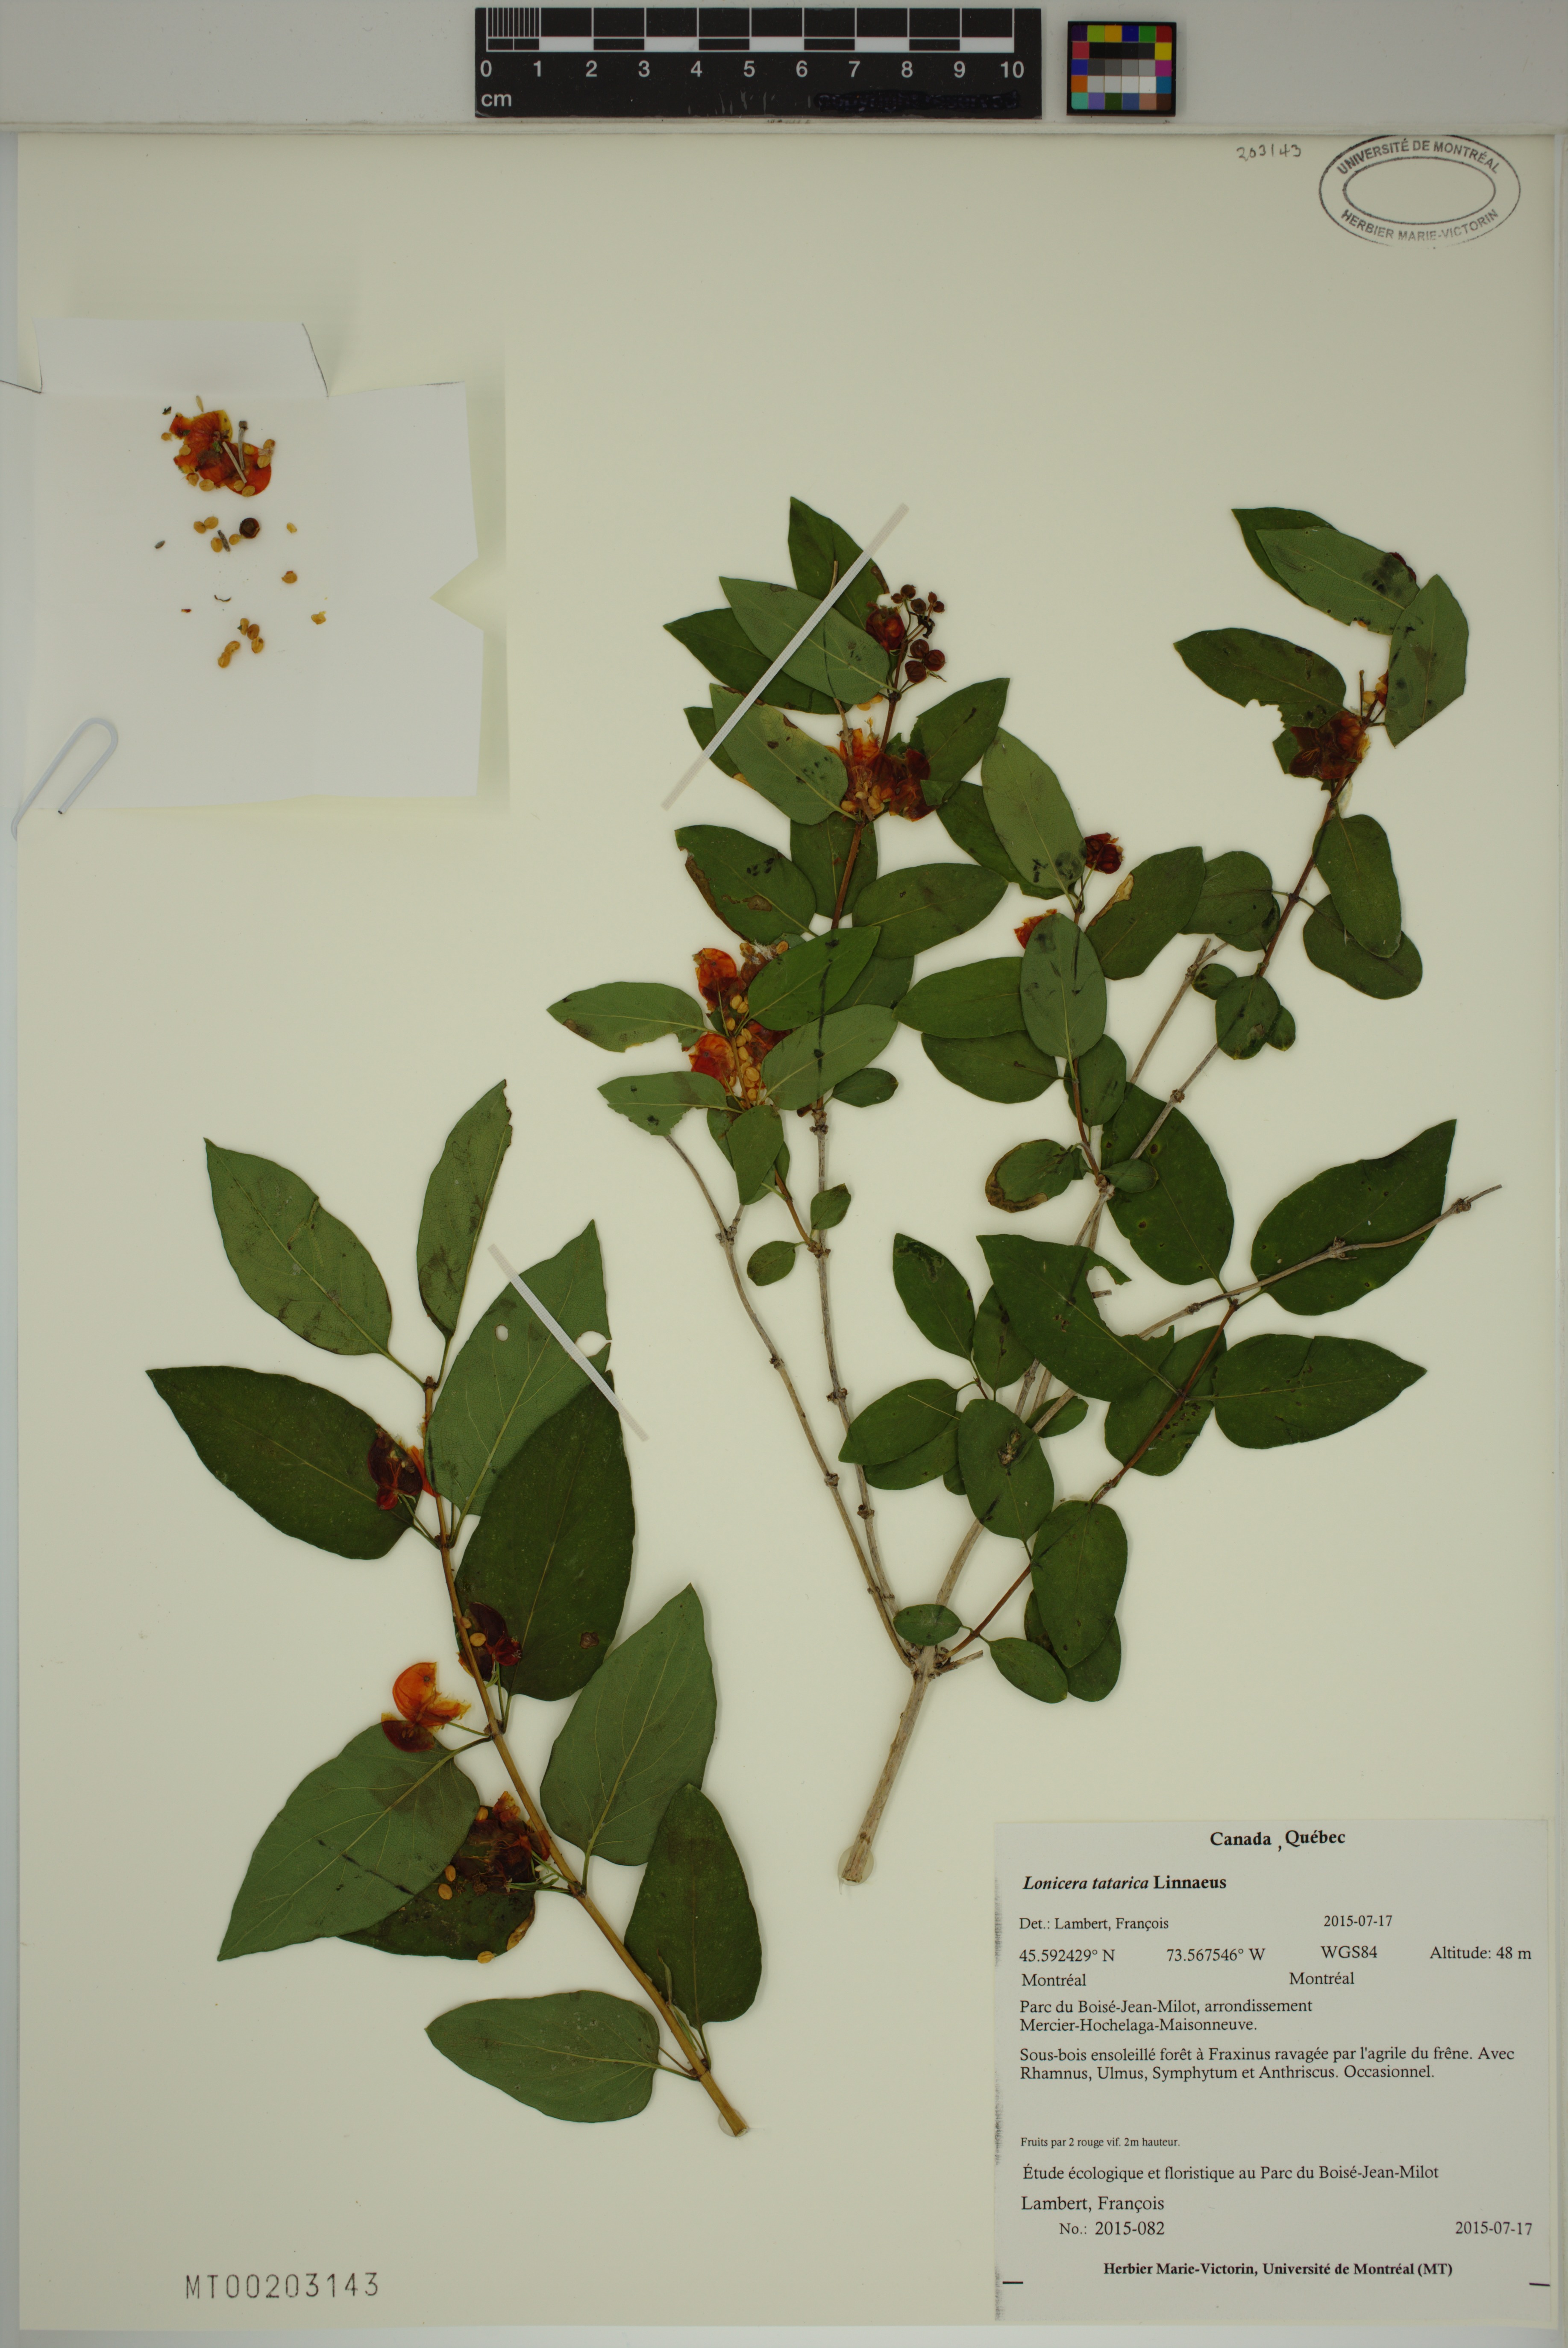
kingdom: Plantae
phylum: Tracheophyta
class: Magnoliopsida
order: Dipsacales
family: Caprifoliaceae
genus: Lonicera
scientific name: Lonicera tatarica
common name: Tatarian honeysuckle
